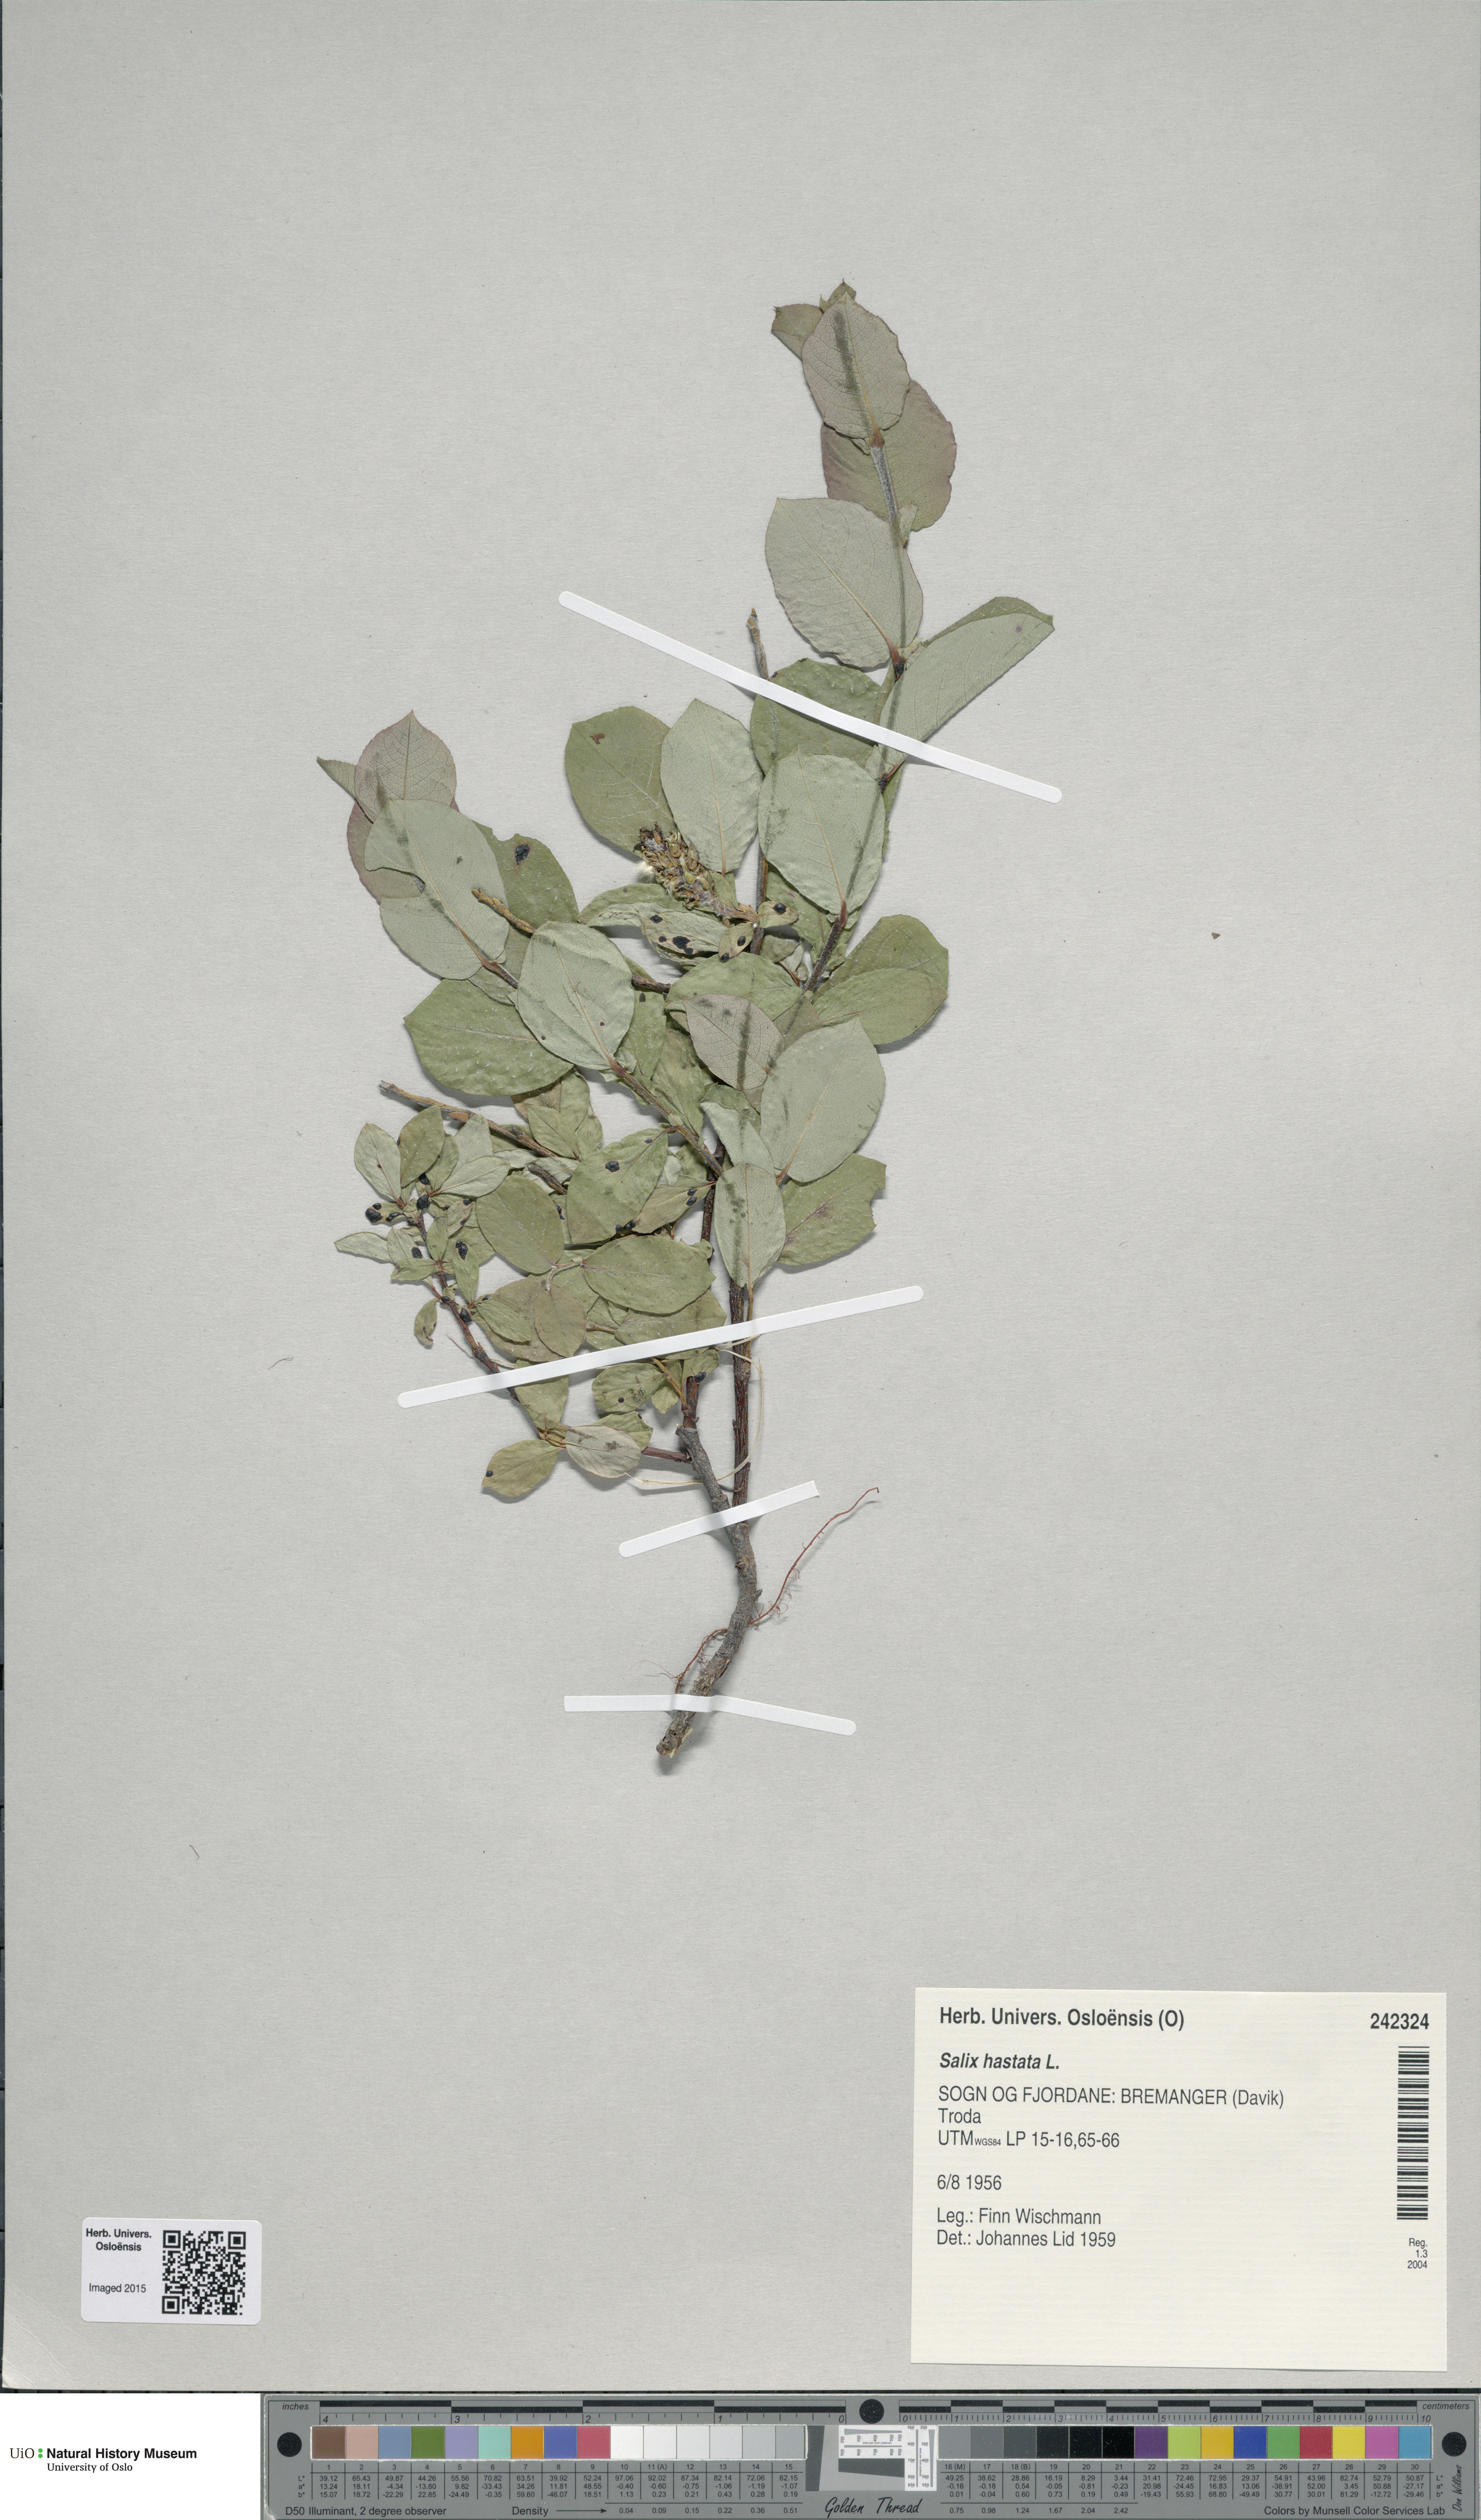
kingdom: Plantae
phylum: Tracheophyta
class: Magnoliopsida
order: Malpighiales
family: Salicaceae
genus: Salix
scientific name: Salix hastata
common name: Halberd willow
